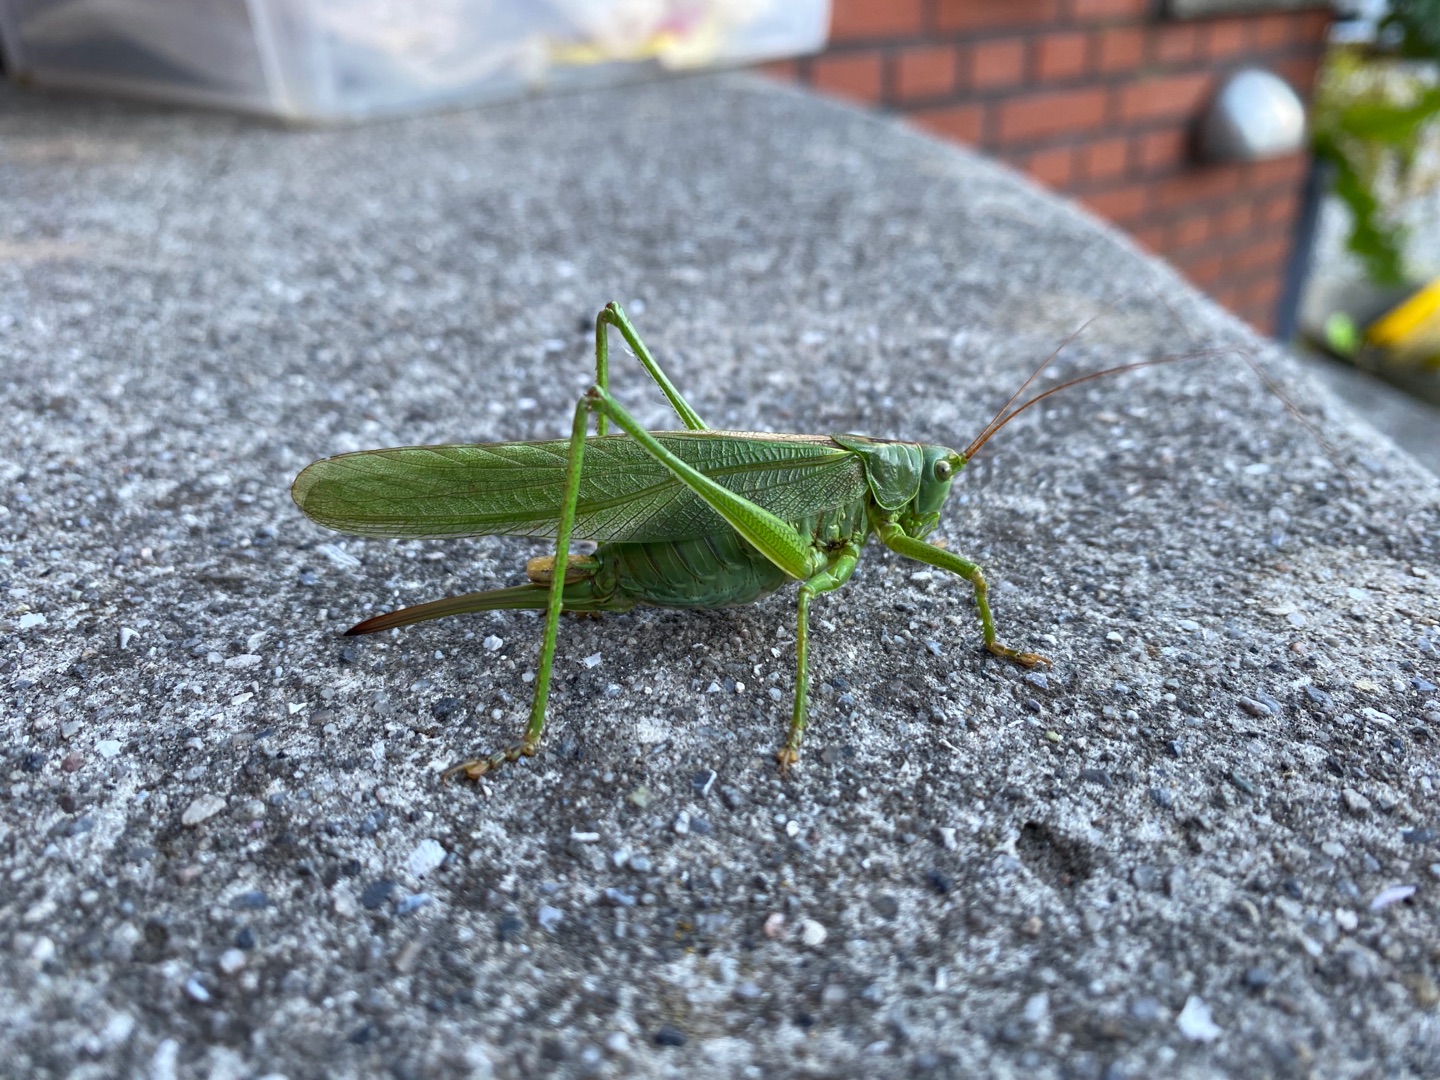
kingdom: Animalia
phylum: Arthropoda
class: Insecta
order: Orthoptera
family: Tettigoniidae
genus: Tettigonia
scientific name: Tettigonia viridissima
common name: Stor grøn løvgræshoppe
